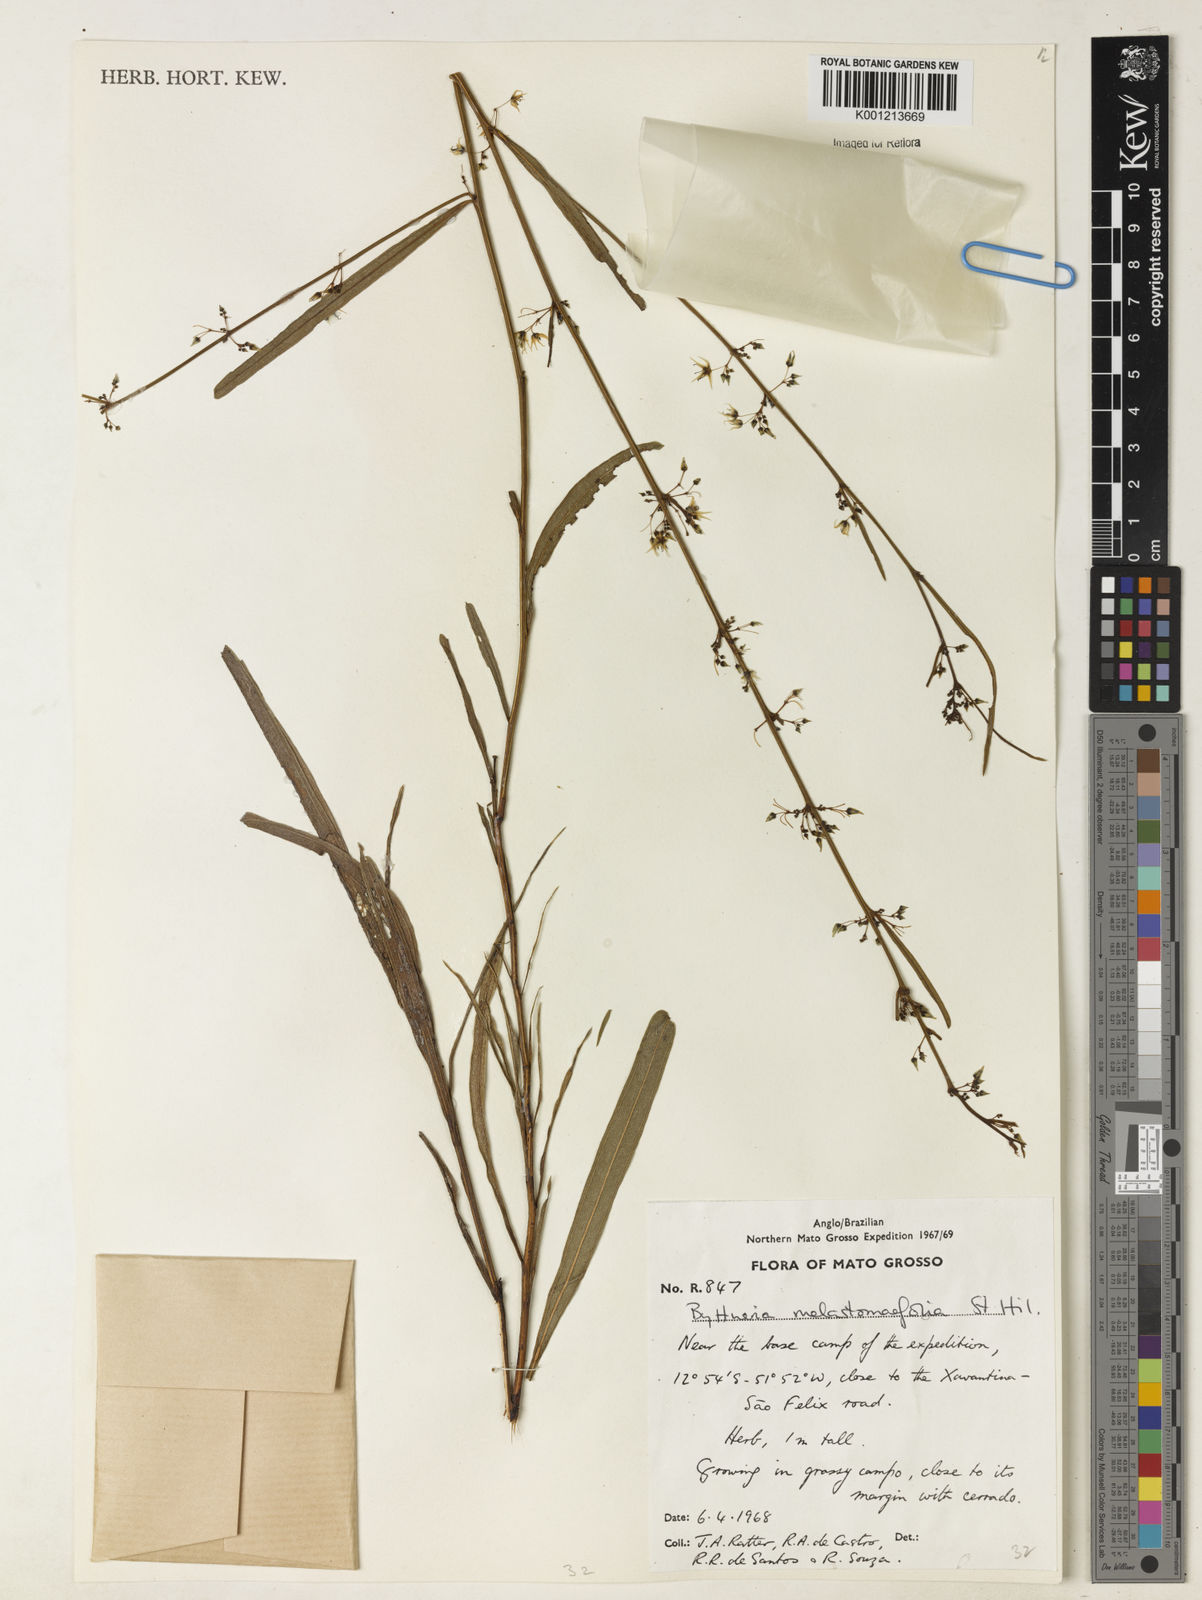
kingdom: Plantae
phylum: Tracheophyta
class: Magnoliopsida
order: Malvales
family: Malvaceae
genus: Byttneria
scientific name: Byttneria melastomifolia
